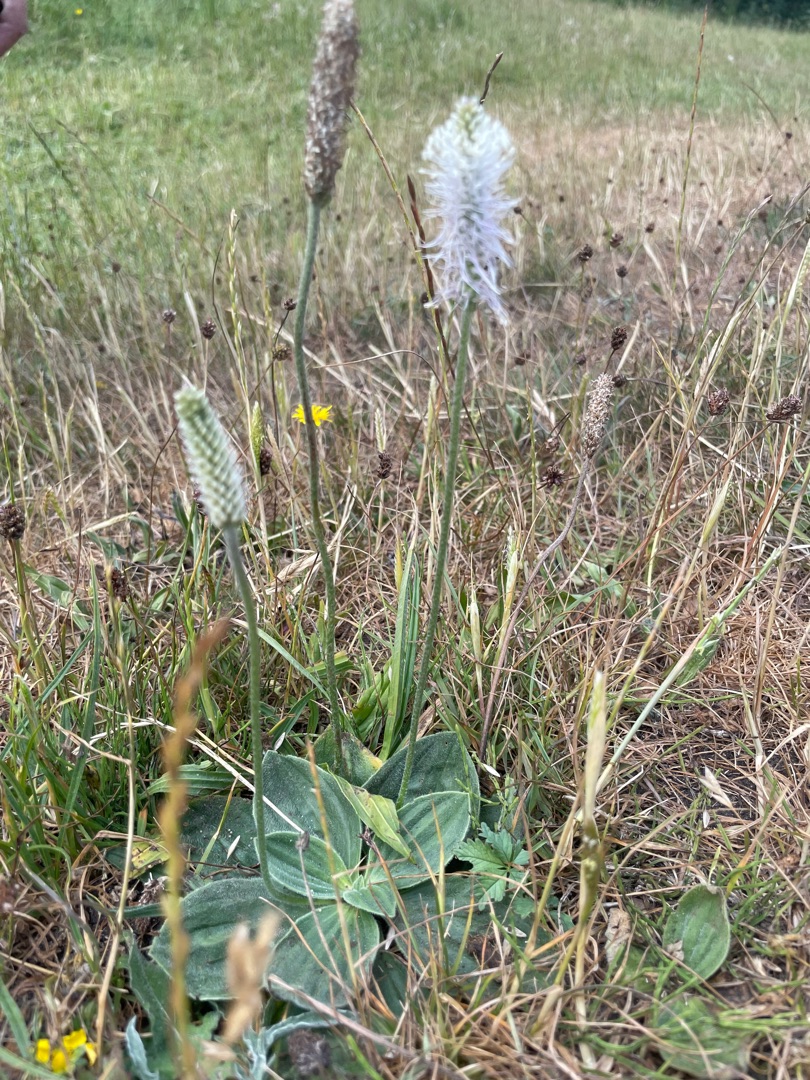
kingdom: Plantae
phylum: Tracheophyta
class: Magnoliopsida
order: Lamiales
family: Plantaginaceae
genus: Plantago
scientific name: Plantago media
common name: Dunet vejbred
